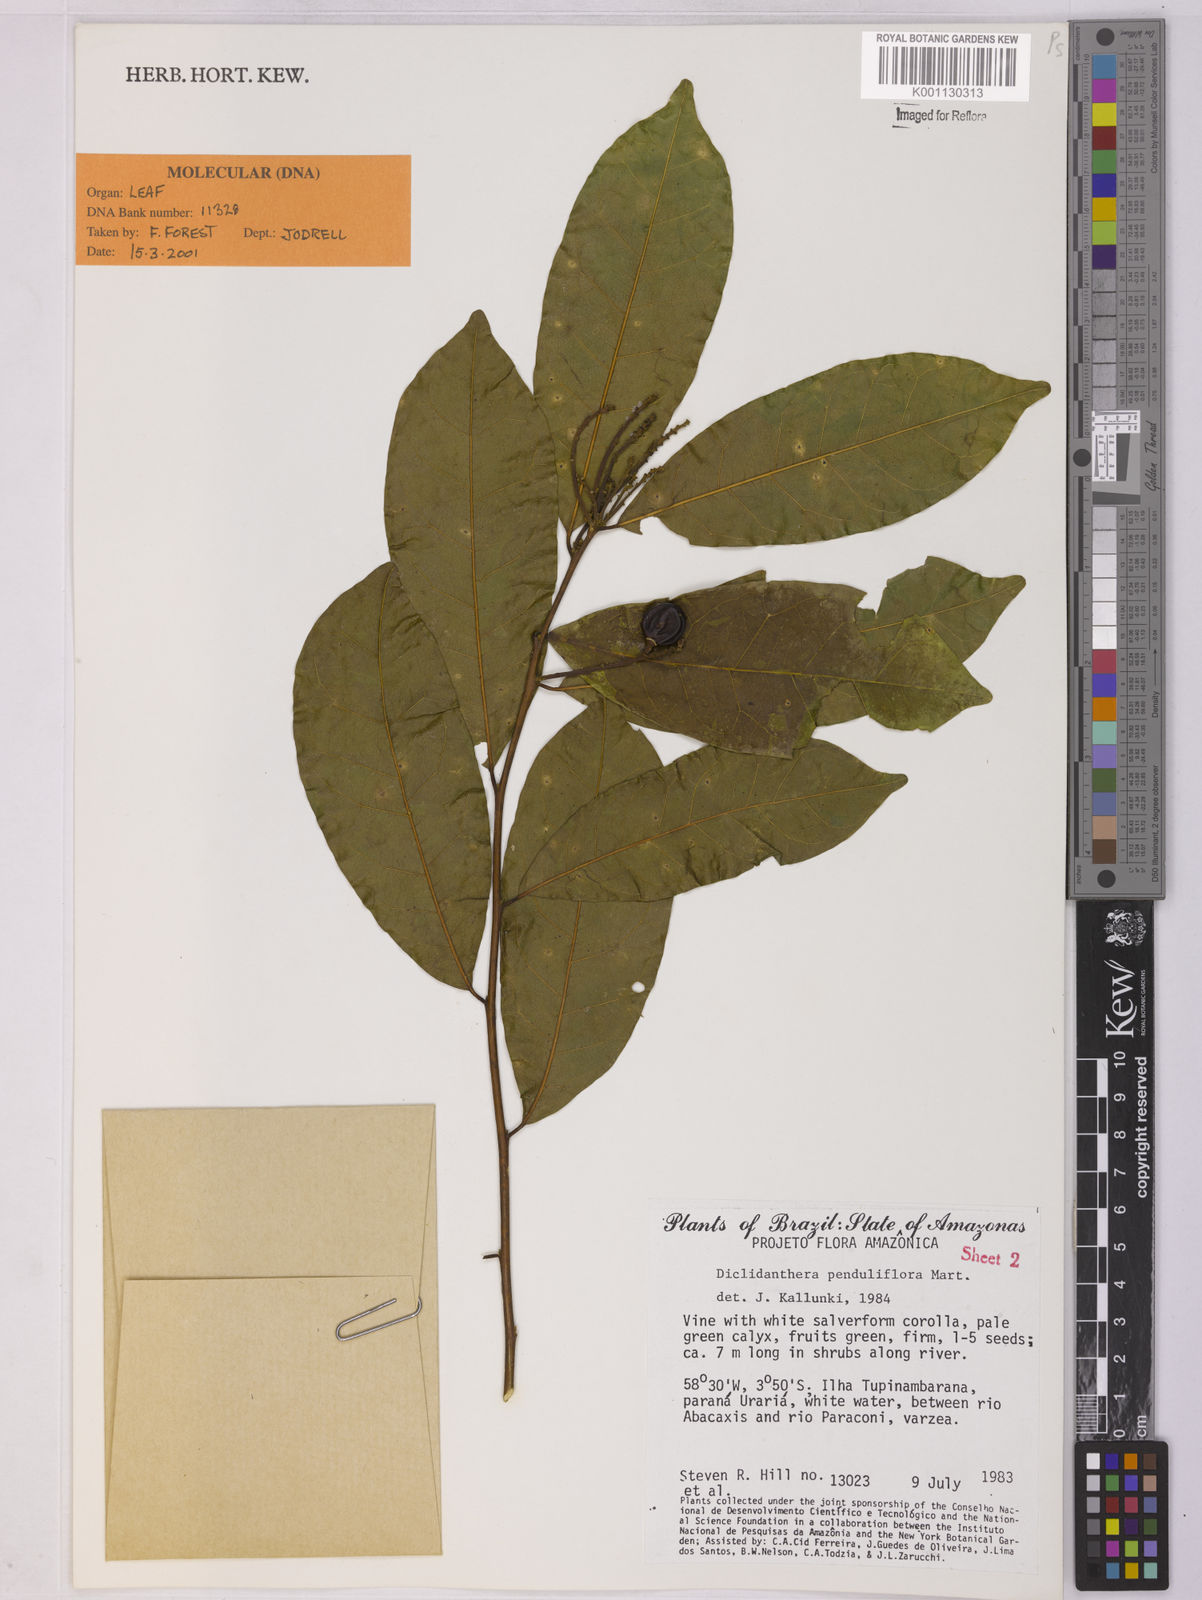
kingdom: Plantae
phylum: Tracheophyta
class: Magnoliopsida
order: Fabales
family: Polygalaceae
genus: Diclidanthera
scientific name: Diclidanthera penduliflora
